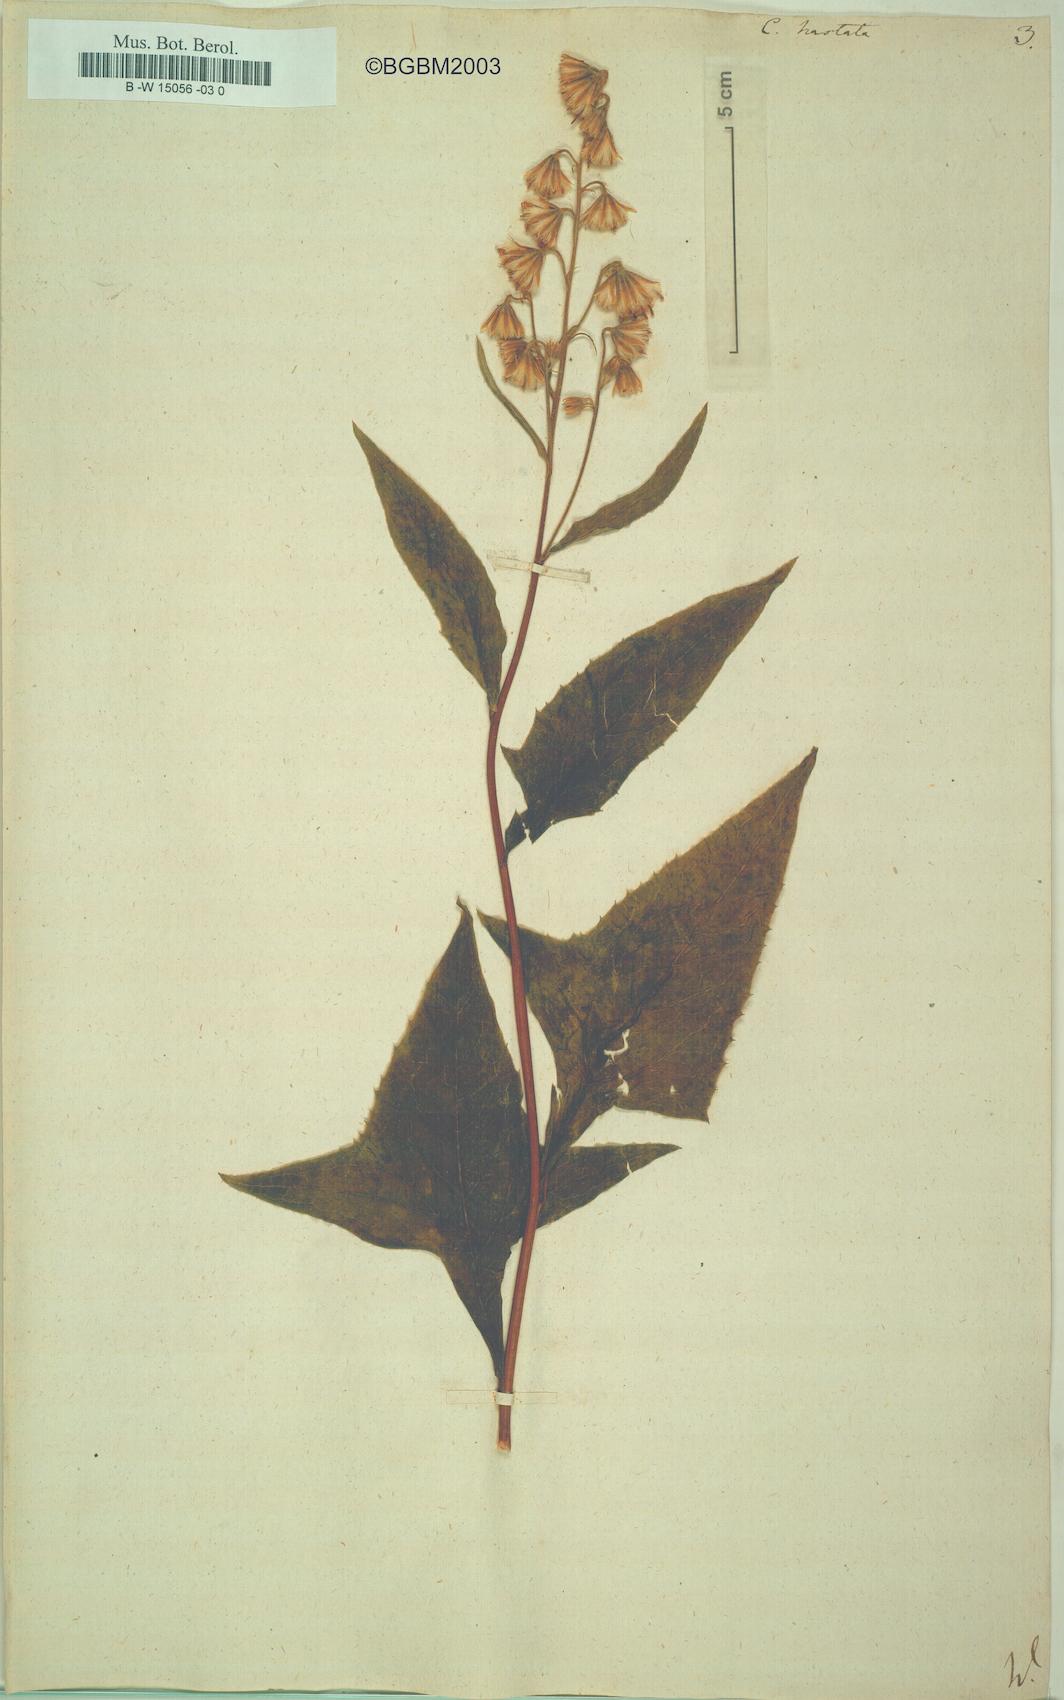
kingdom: Plantae
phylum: Tracheophyta
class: Magnoliopsida
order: Asterales
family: Asteraceae
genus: Parasenecio
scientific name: Parasenecio hastatus
